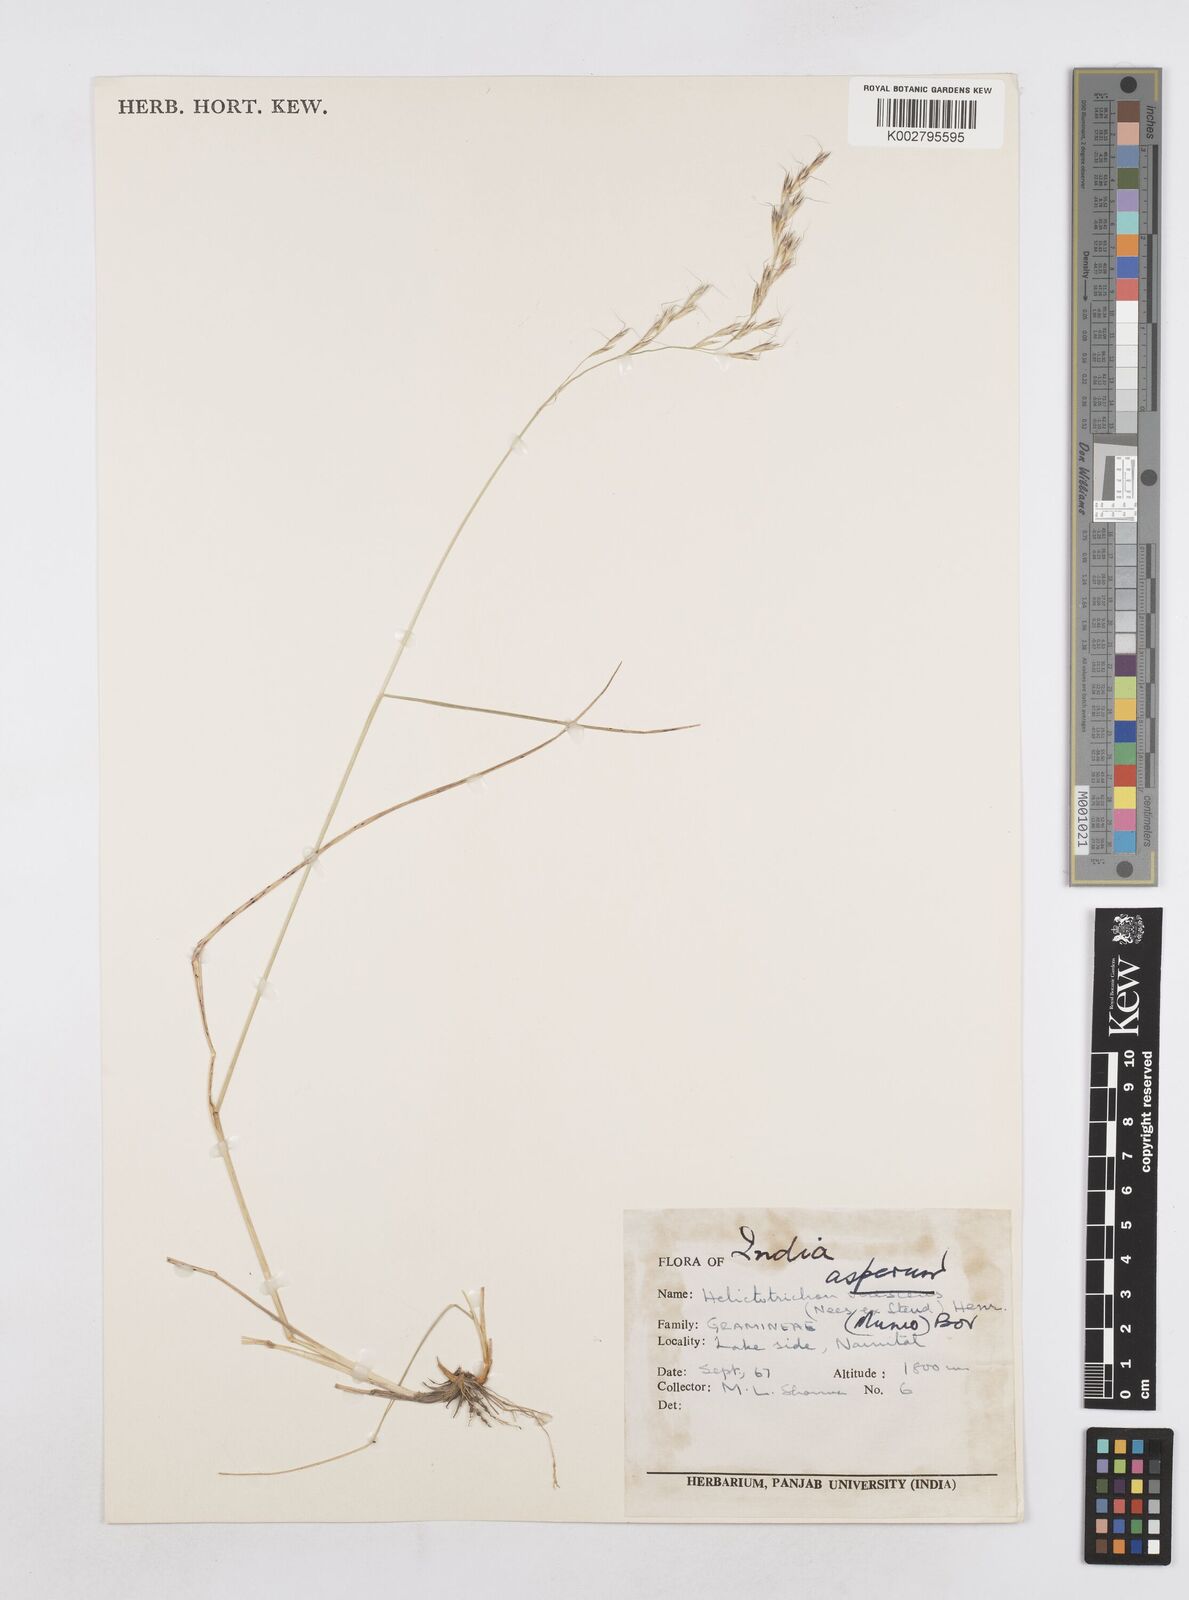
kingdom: Plantae
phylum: Tracheophyta
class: Liliopsida
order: Poales
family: Poaceae
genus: Helictotrichon
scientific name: Helictotrichon
